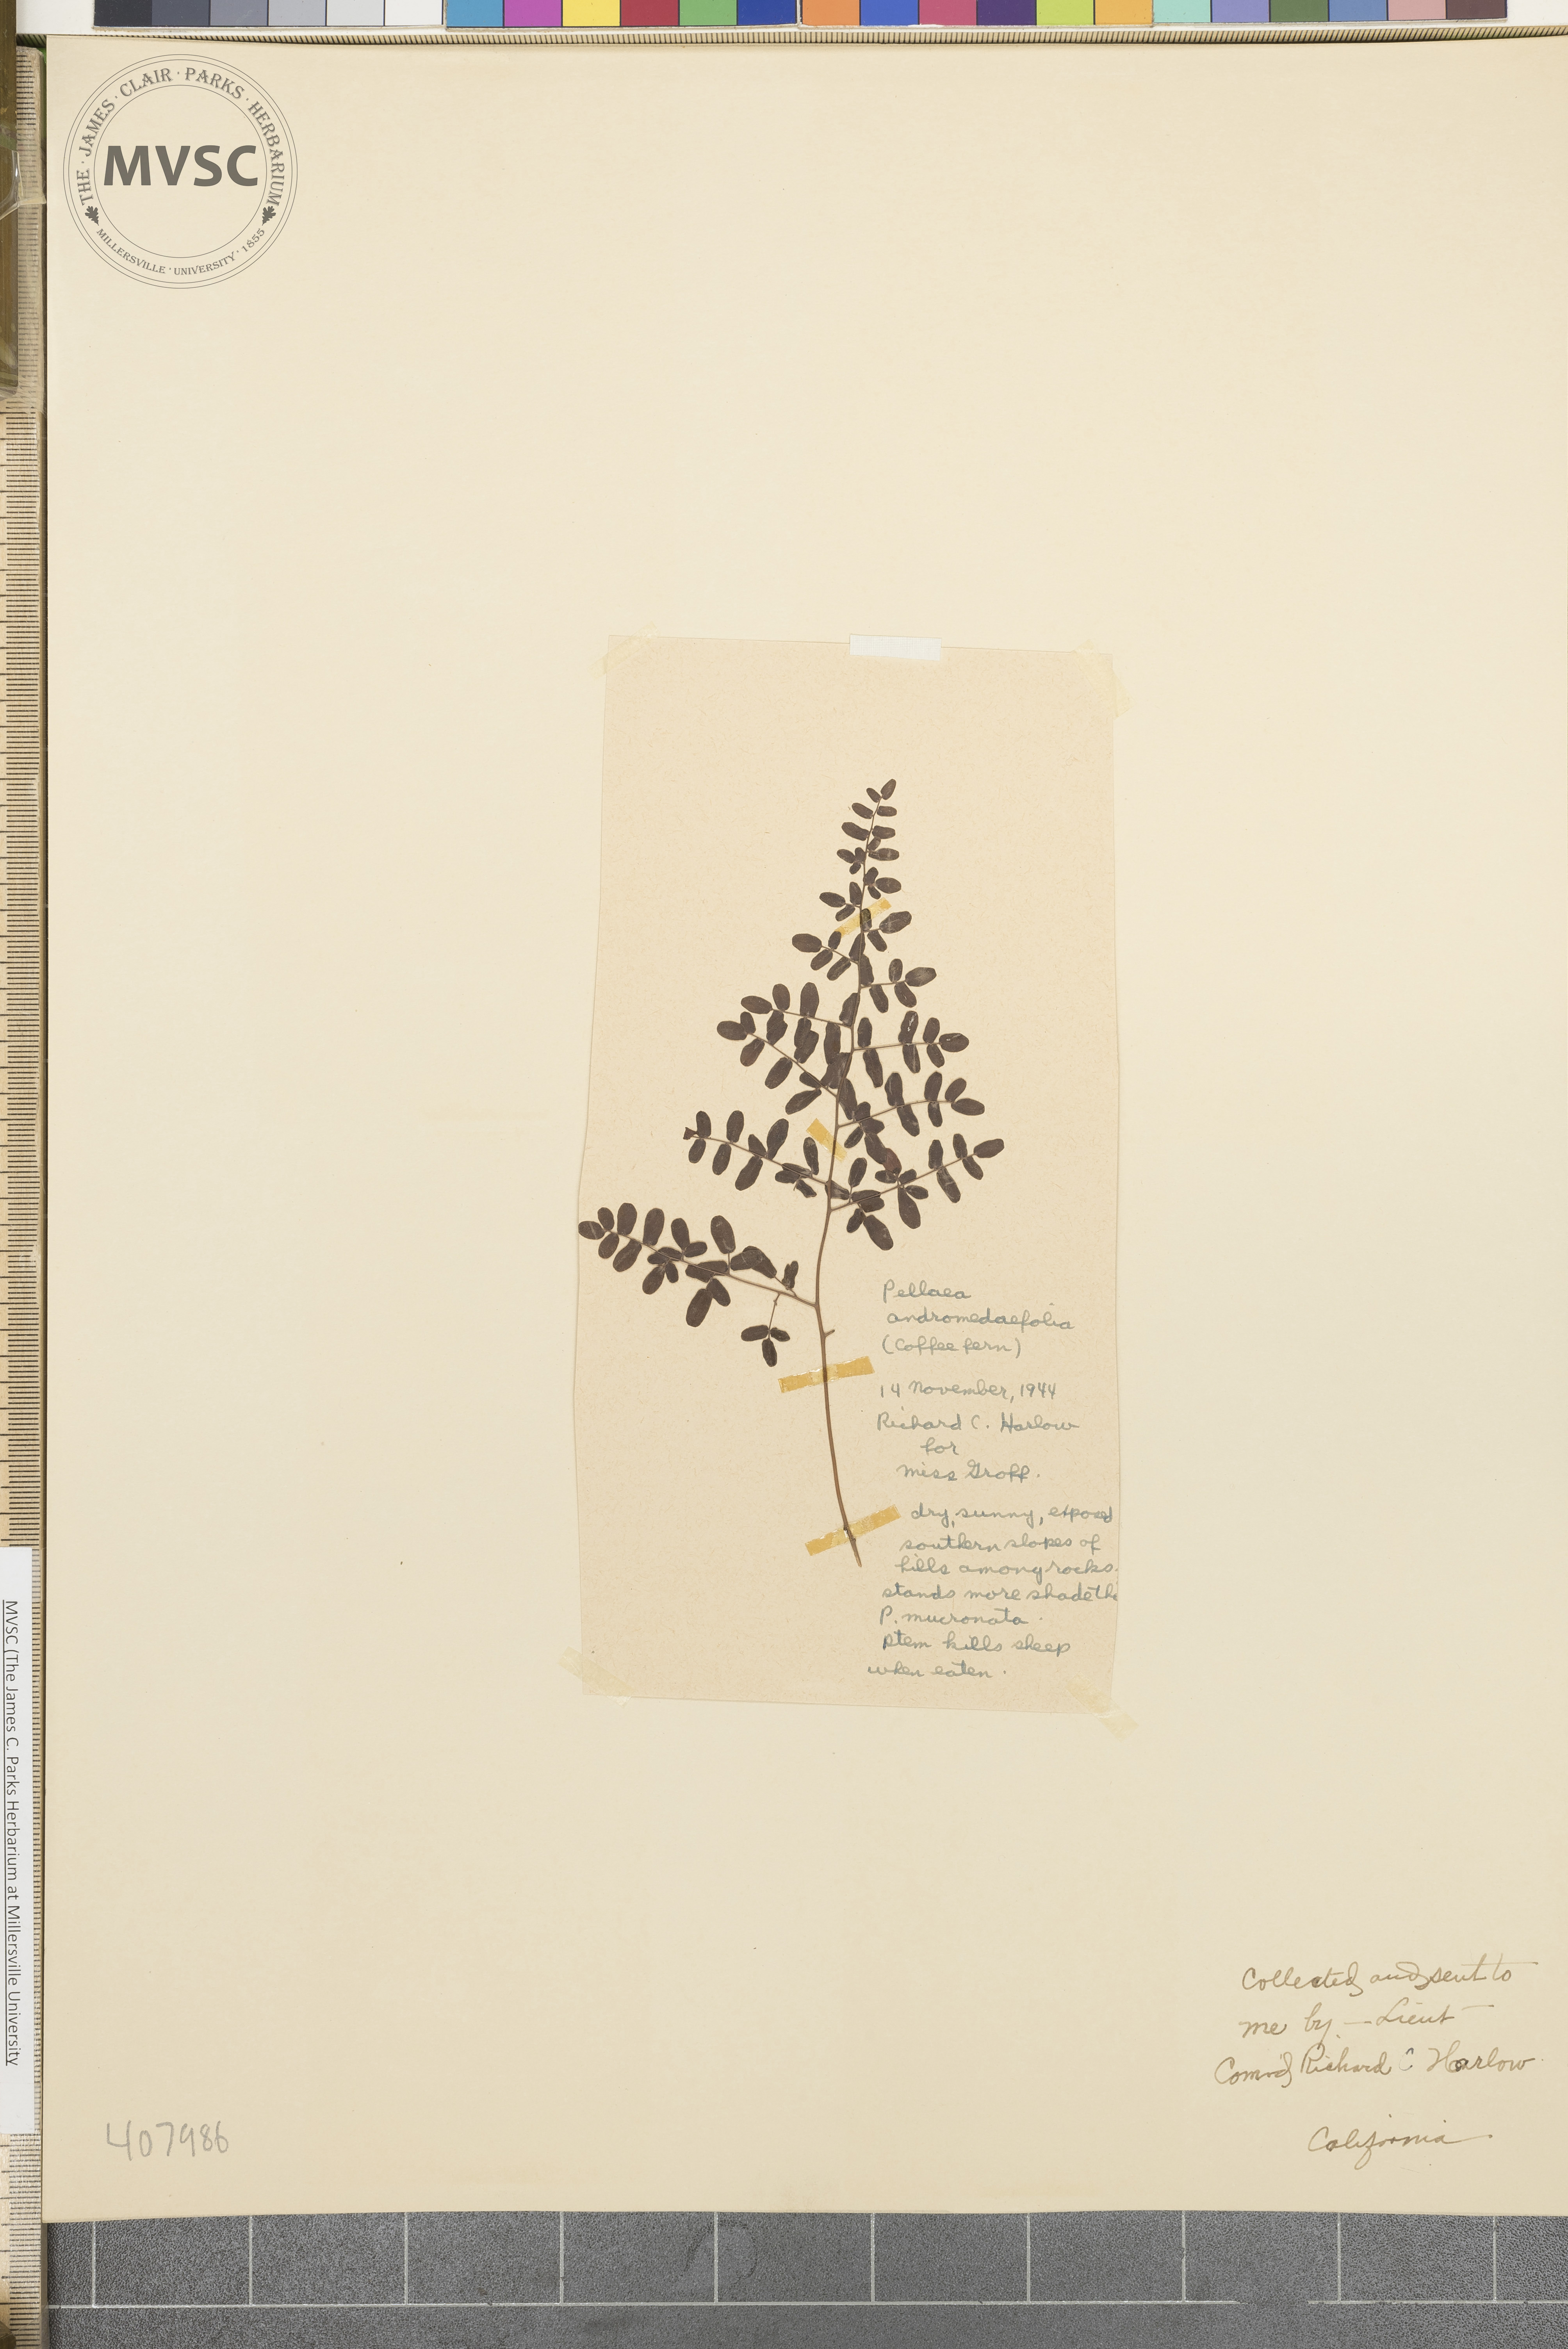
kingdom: Plantae
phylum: Tracheophyta
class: Polypodiopsida
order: Polypodiales
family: Pteridaceae
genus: Pellaea
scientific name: Pellaea andromedifolia
